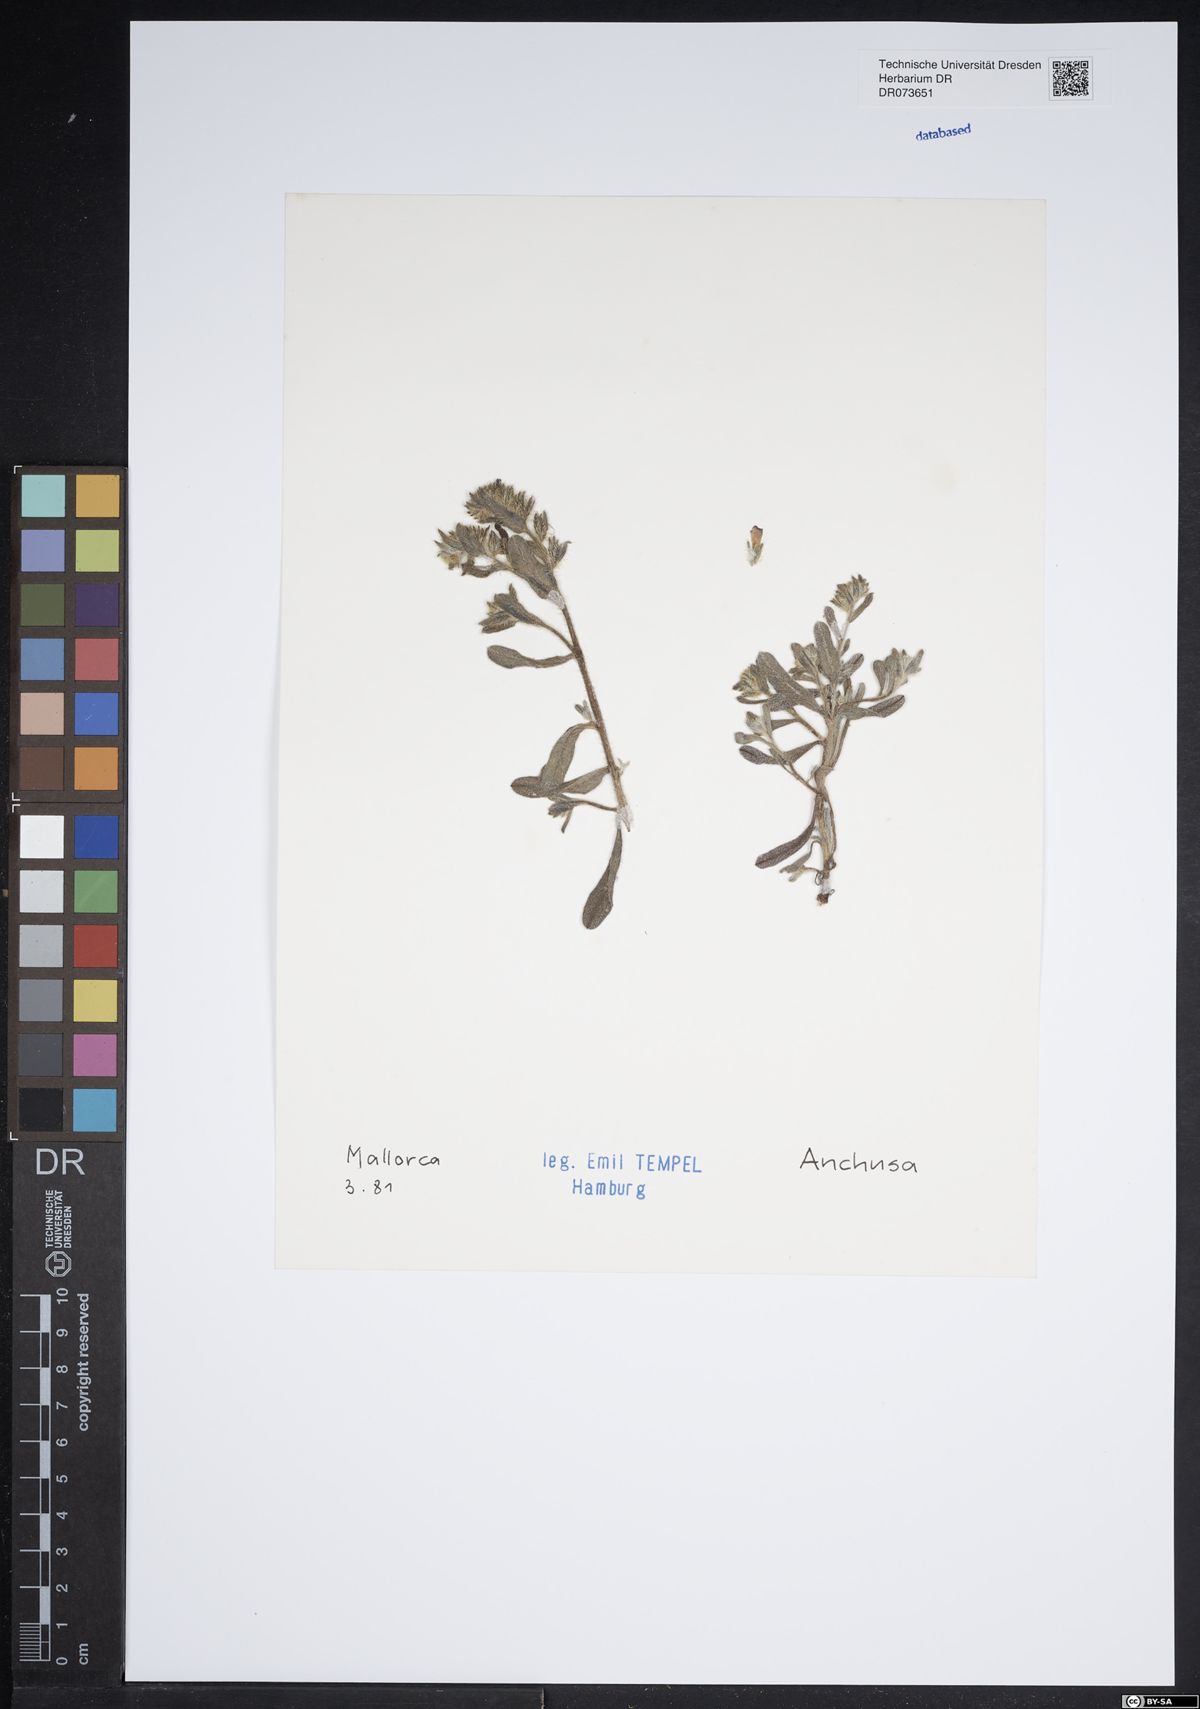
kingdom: Plantae
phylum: Tracheophyta
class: Magnoliopsida
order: Boraginales
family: Boraginaceae
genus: Anchusa
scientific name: Anchusa
